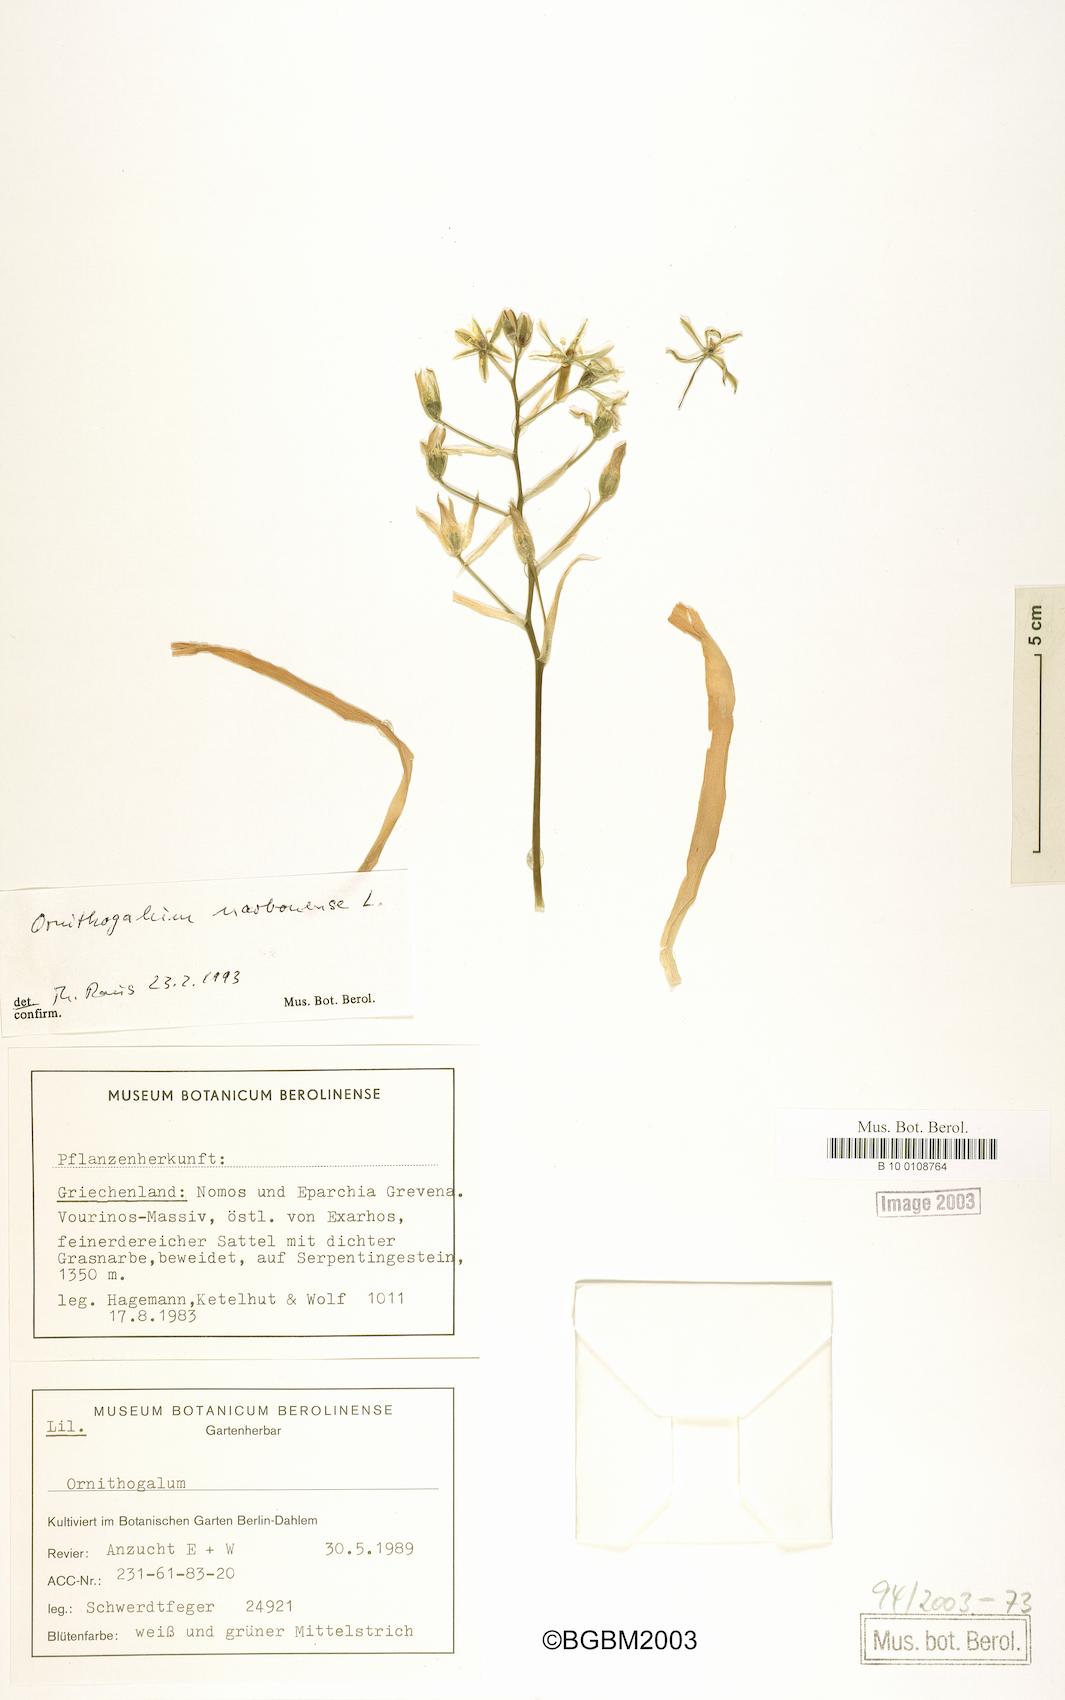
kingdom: Plantae
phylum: Tracheophyta
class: Liliopsida
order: Asparagales
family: Asparagaceae
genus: Ornithogalum
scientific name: Ornithogalum narbonense
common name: Bath-asparagus
